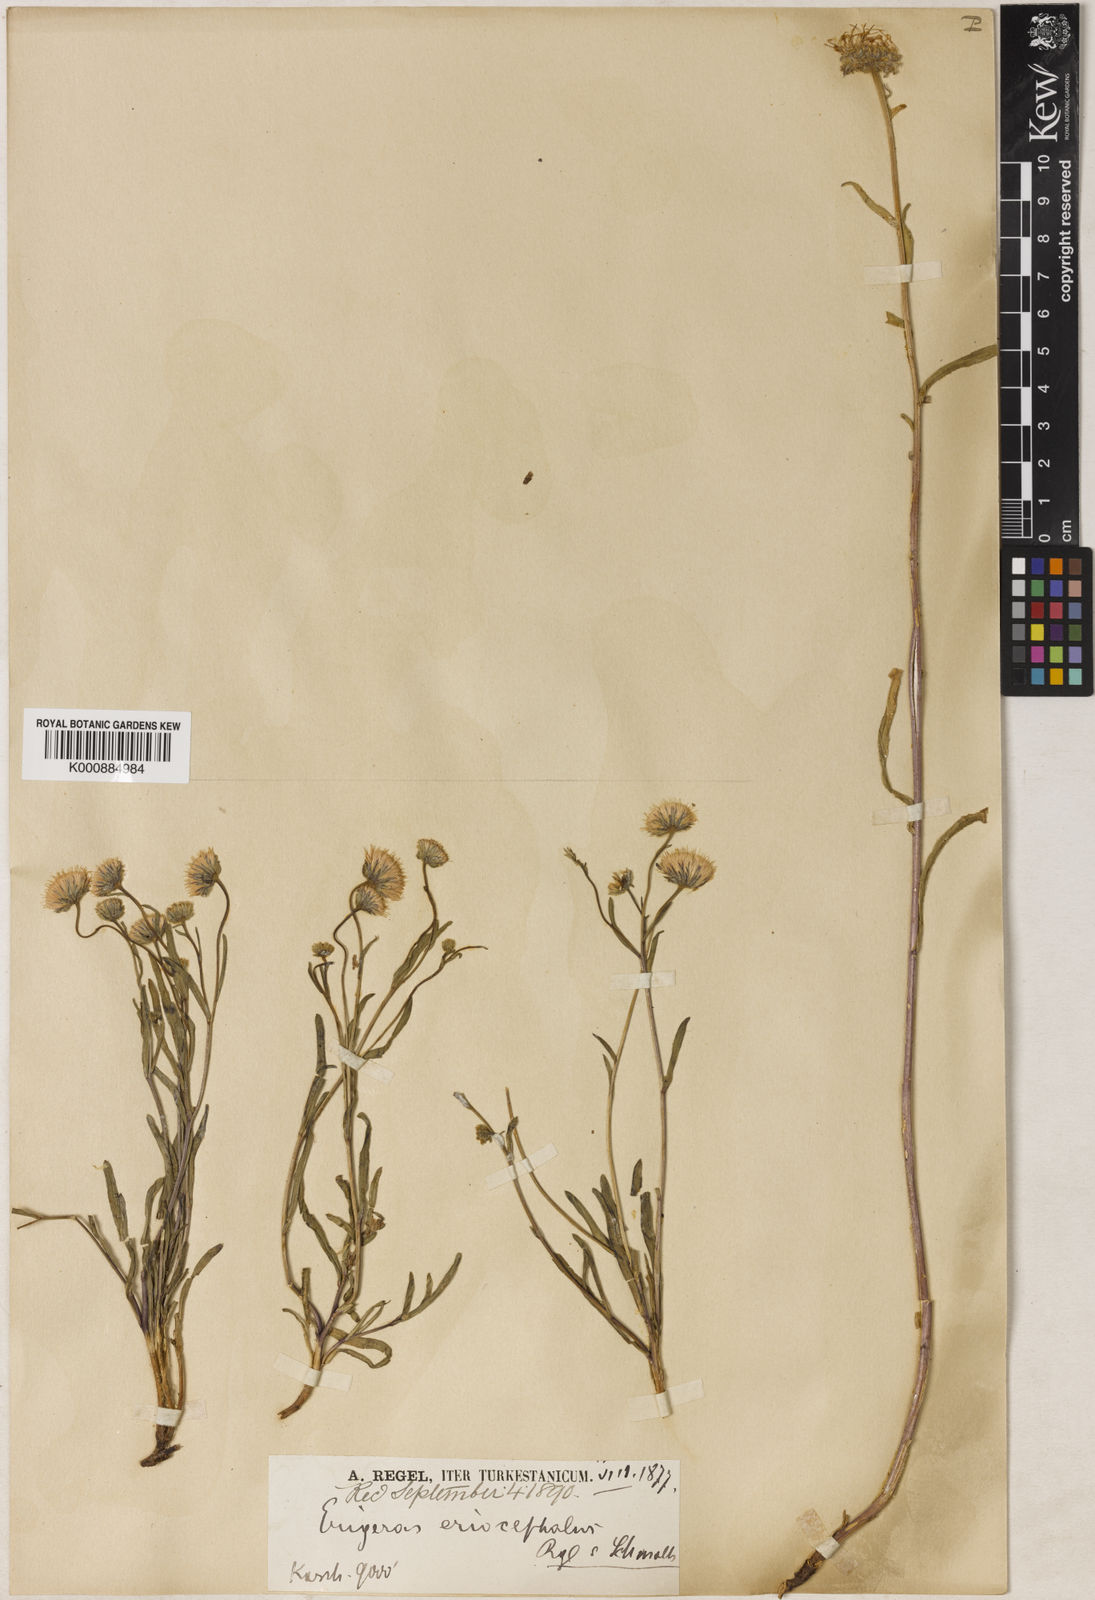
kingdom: Plantae
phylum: Tracheophyta
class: Magnoliopsida
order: Asterales
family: Asteraceae
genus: Erigeron
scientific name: Erigeron eriocephalus
